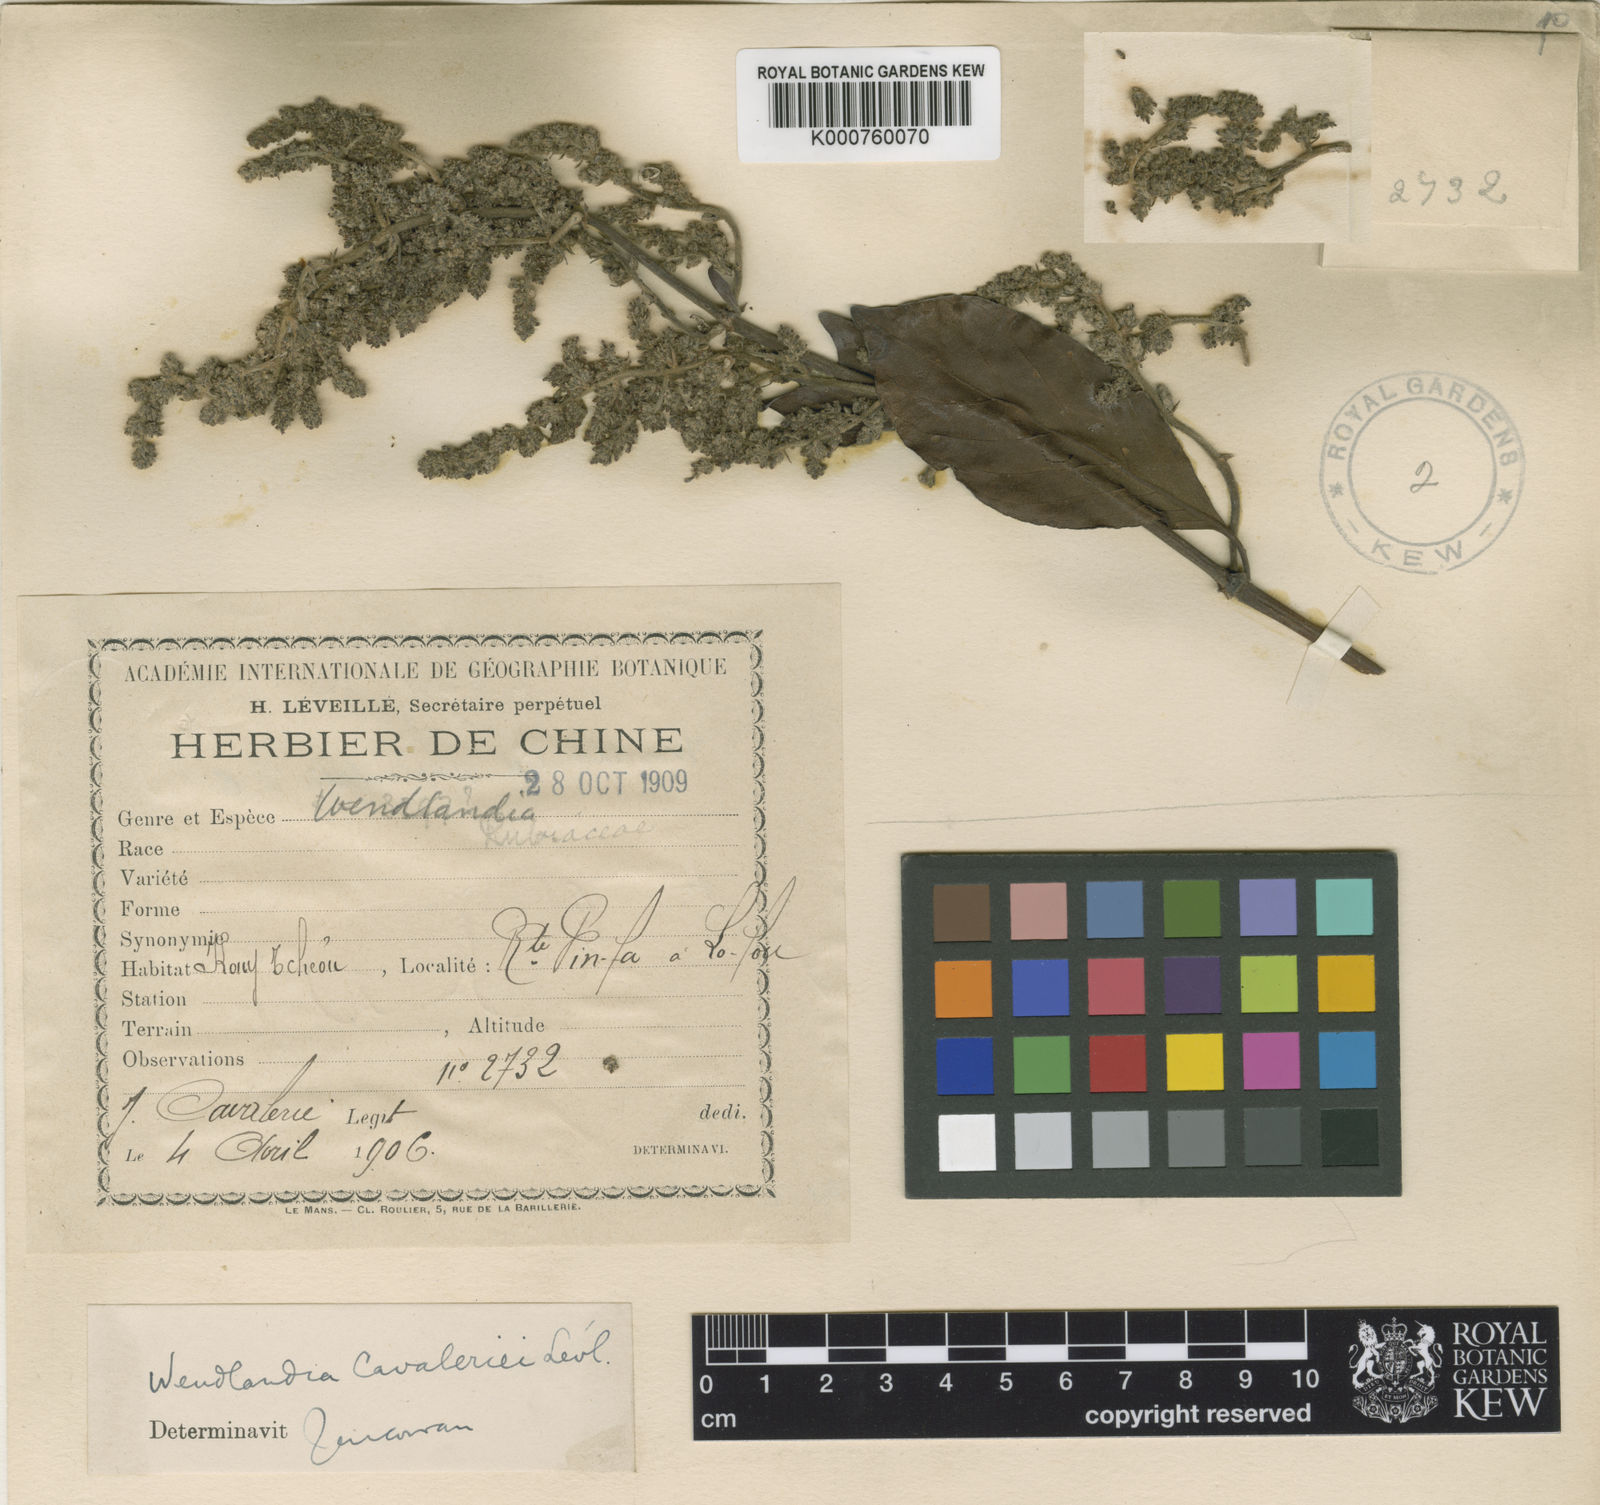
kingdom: Plantae
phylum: Tracheophyta
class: Magnoliopsida
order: Gentianales
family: Rubiaceae
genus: Wendlandia
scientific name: Wendlandia
